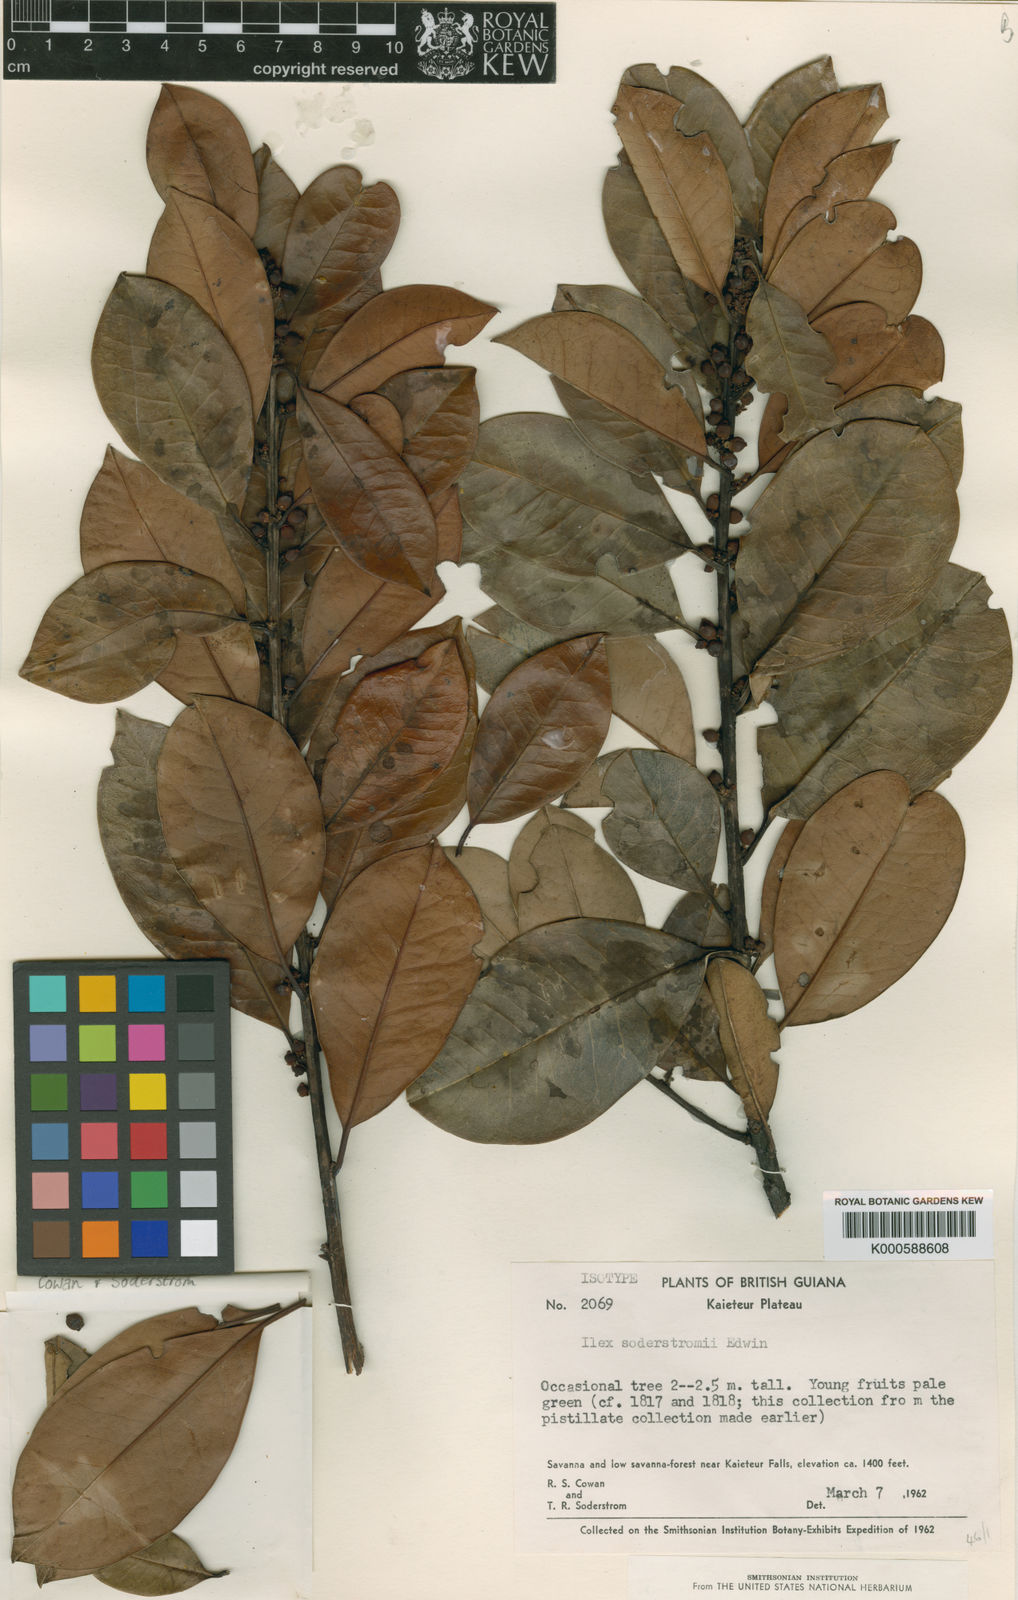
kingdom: Plantae
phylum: Tracheophyta
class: Magnoliopsida
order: Aquifoliales
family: Aquifoliaceae
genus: Ilex
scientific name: Ilex soderstromii
